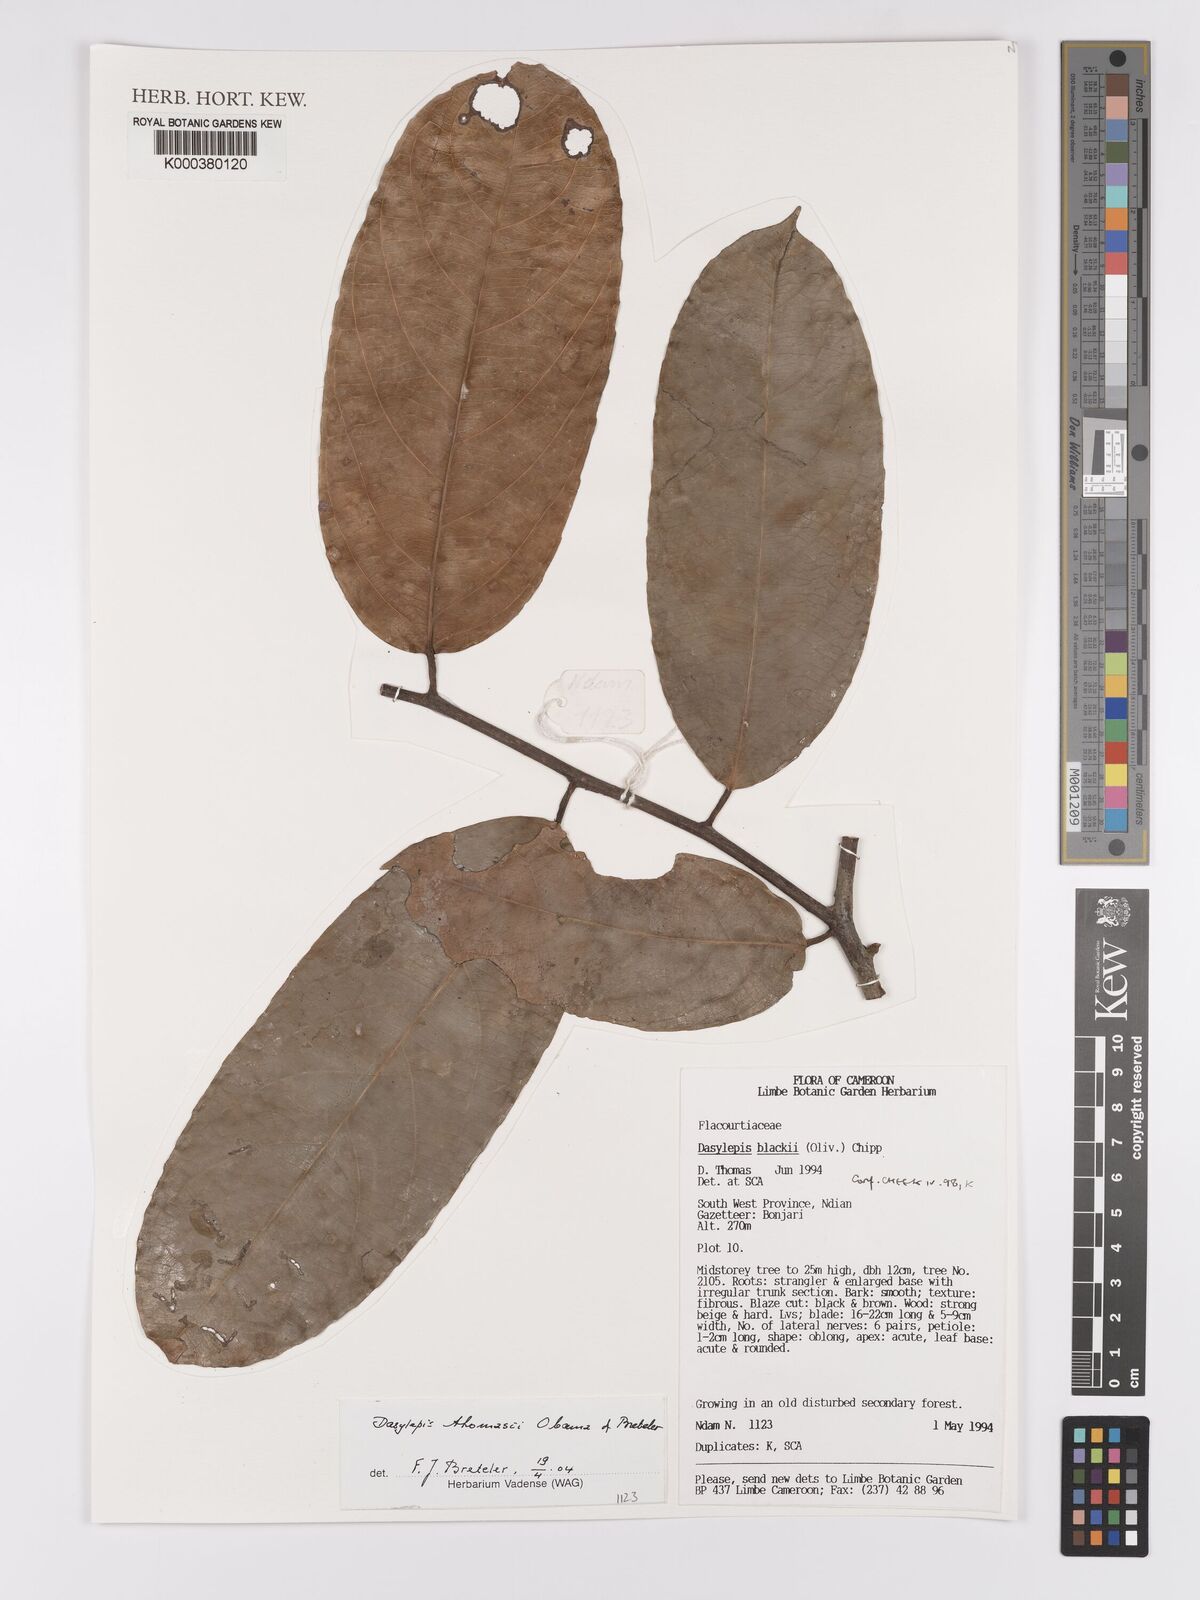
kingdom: Plantae
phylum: Tracheophyta
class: Magnoliopsida
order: Malpighiales
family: Achariaceae
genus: Dasylepis
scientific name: Dasylepis thomasii
